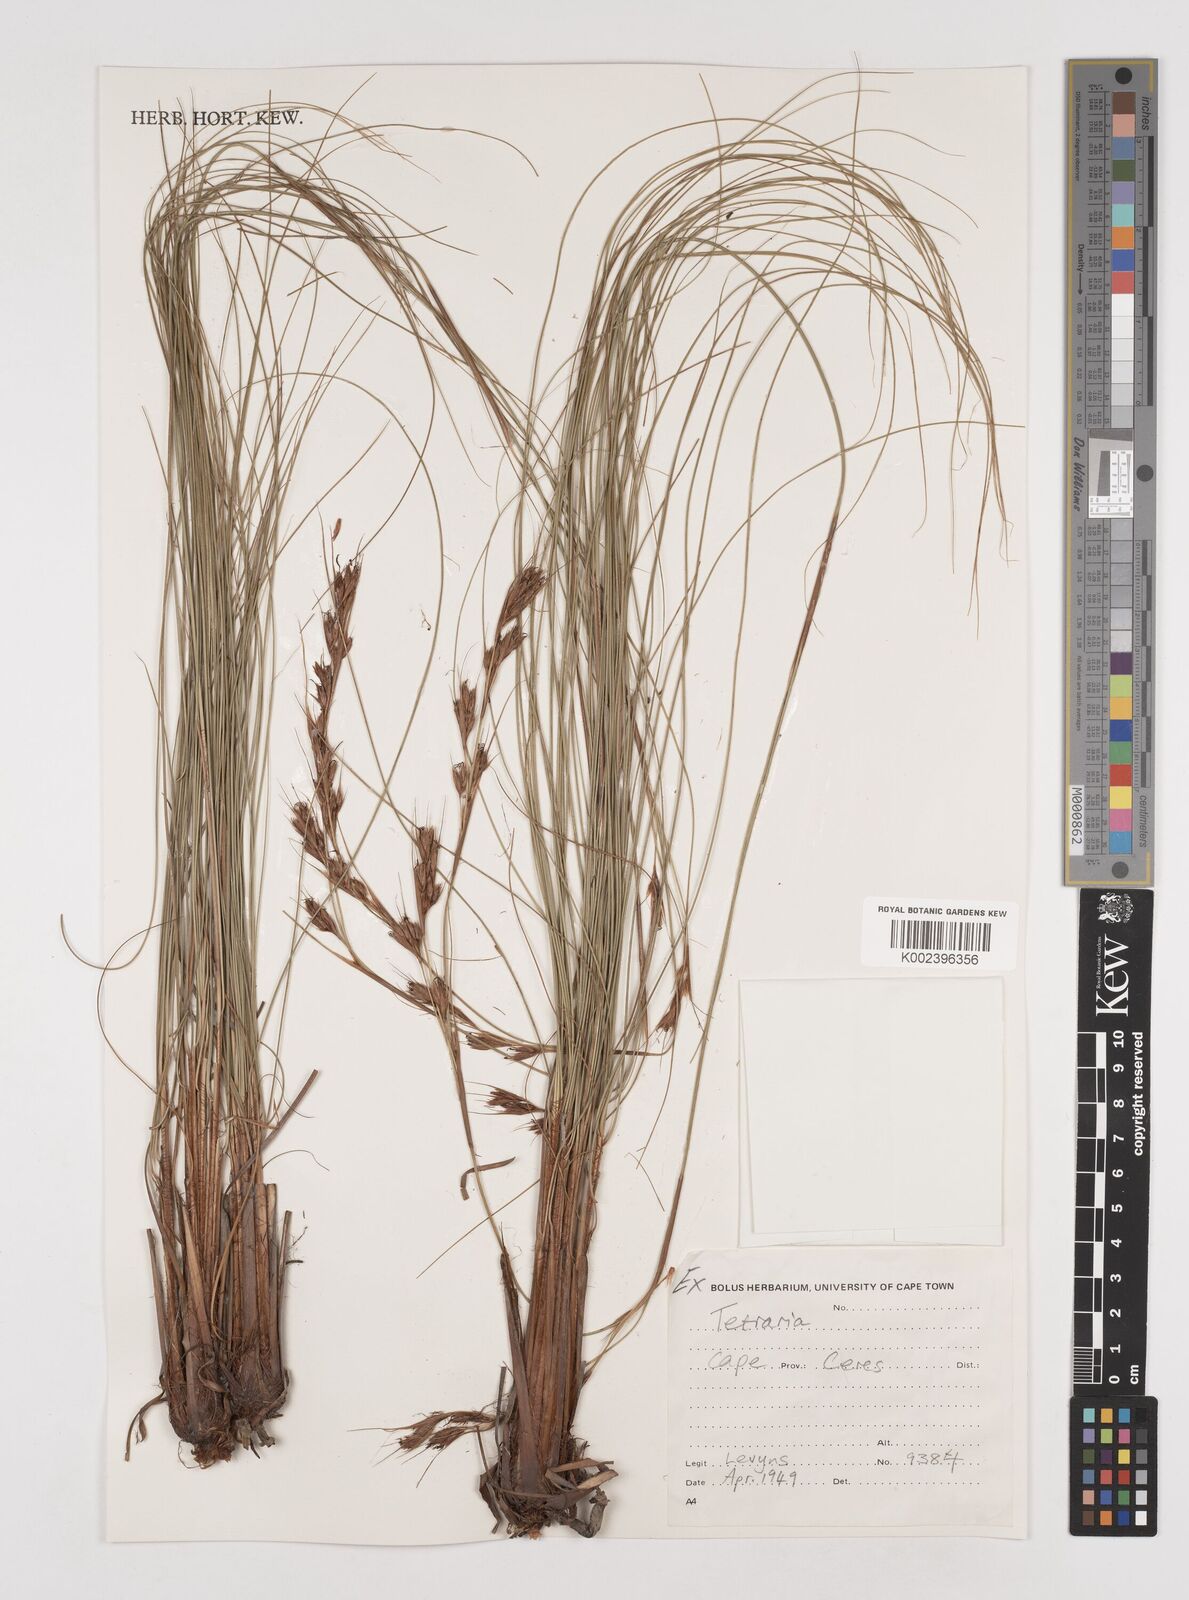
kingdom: Plantae
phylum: Tracheophyta
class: Liliopsida
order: Poales
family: Cyperaceae
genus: Tetraria
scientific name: Tetraria
